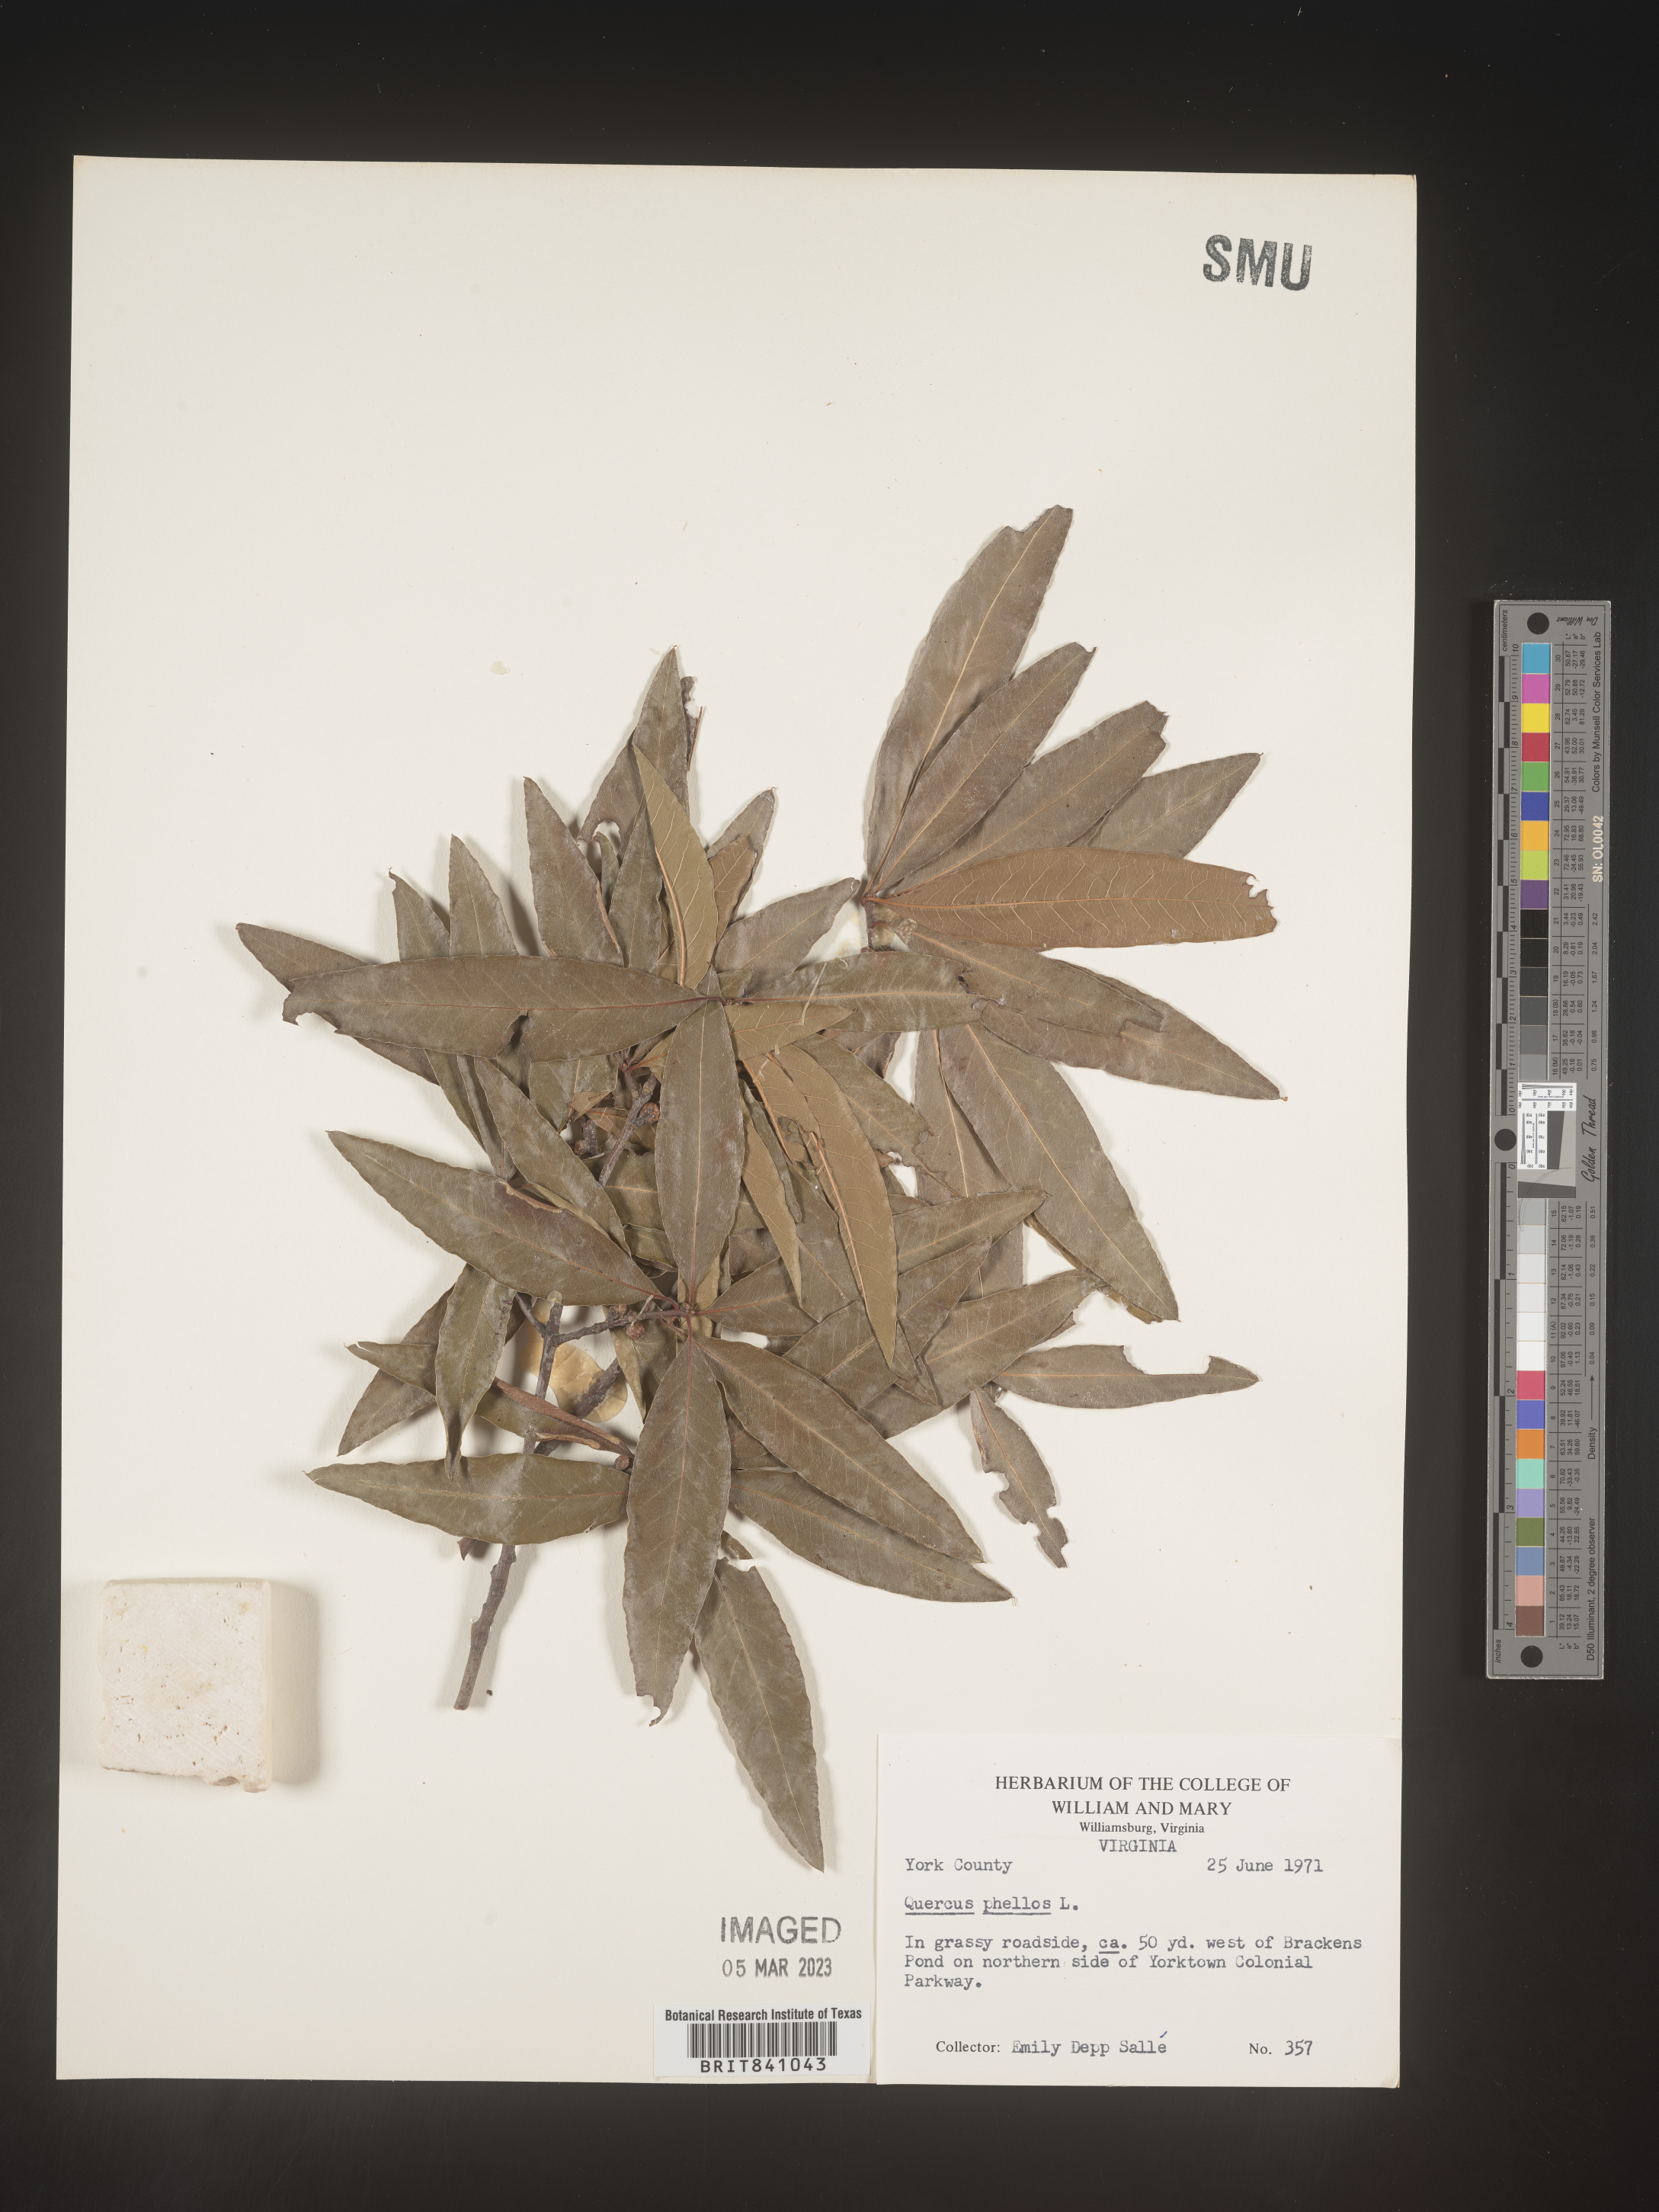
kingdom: Plantae
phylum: Tracheophyta
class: Magnoliopsida
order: Fagales
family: Fagaceae
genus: Quercus
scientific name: Quercus phellos
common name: Willow oak
